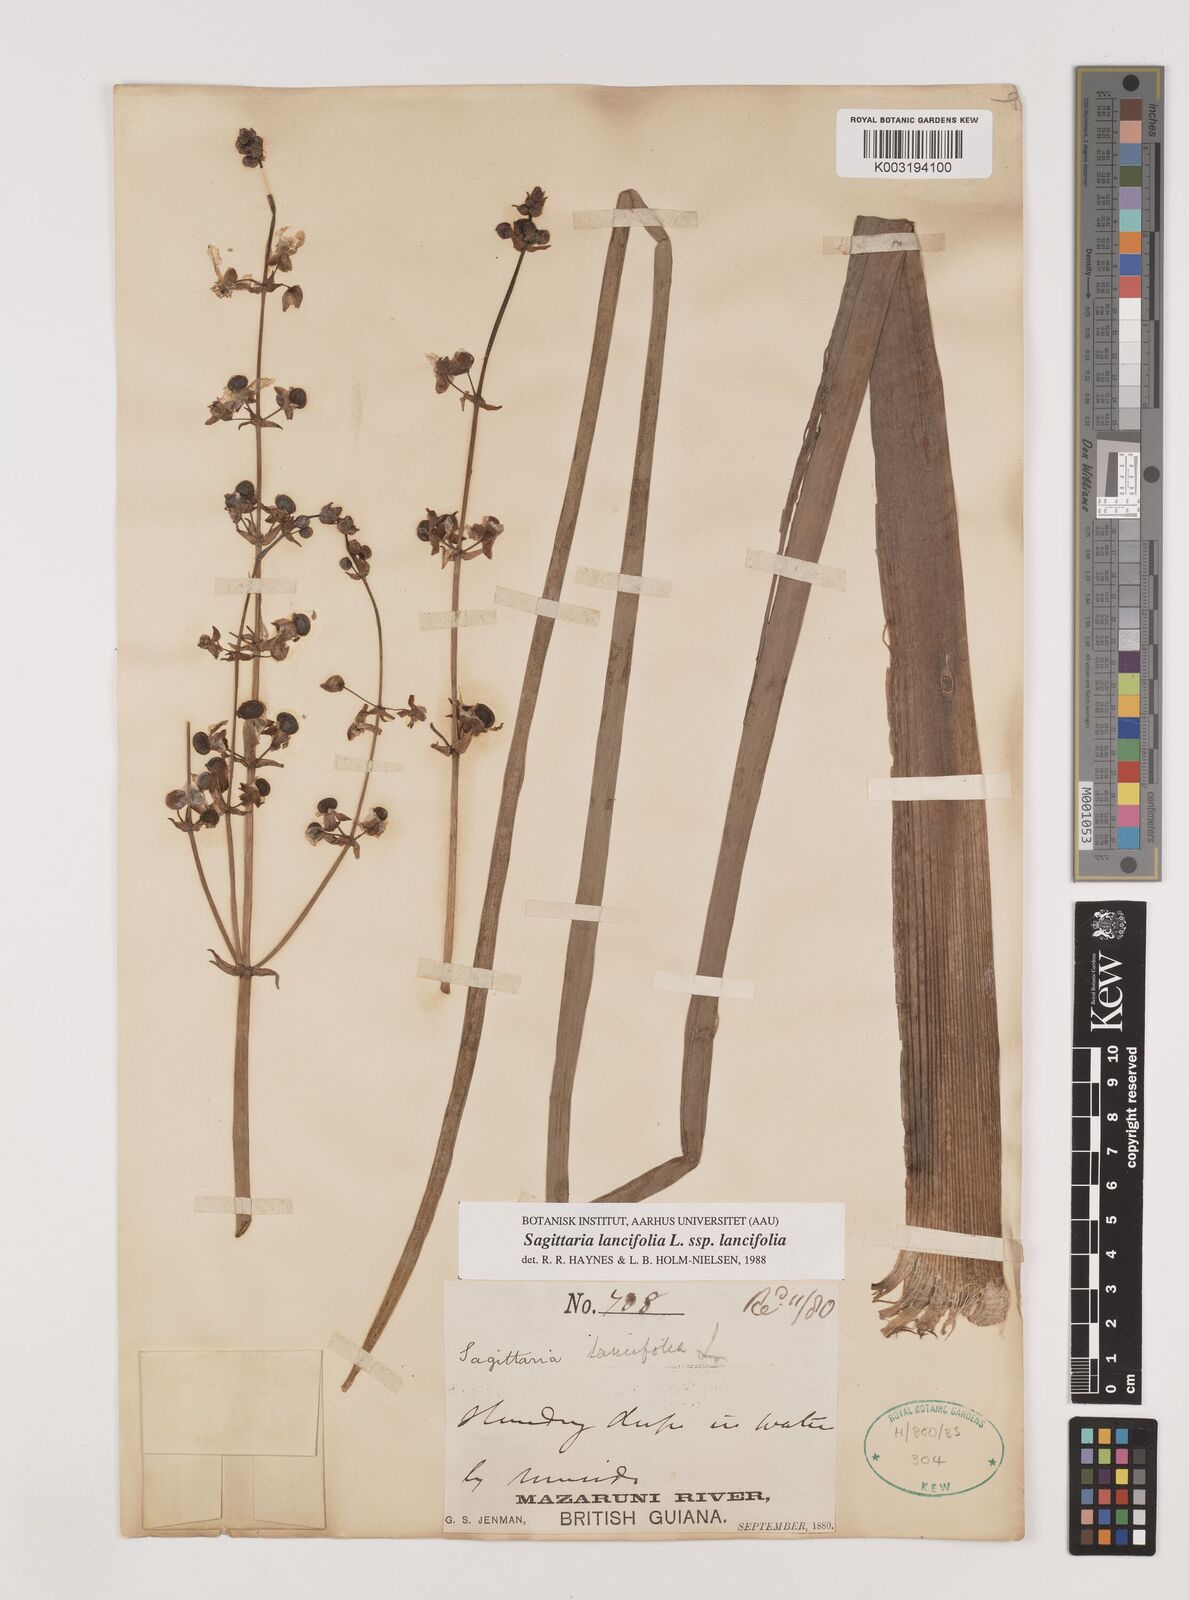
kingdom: Plantae
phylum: Tracheophyta
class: Liliopsida
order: Alismatales
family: Alismataceae
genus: Sagittaria
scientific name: Sagittaria lancifolia
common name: Lance-leaf arrowhead
